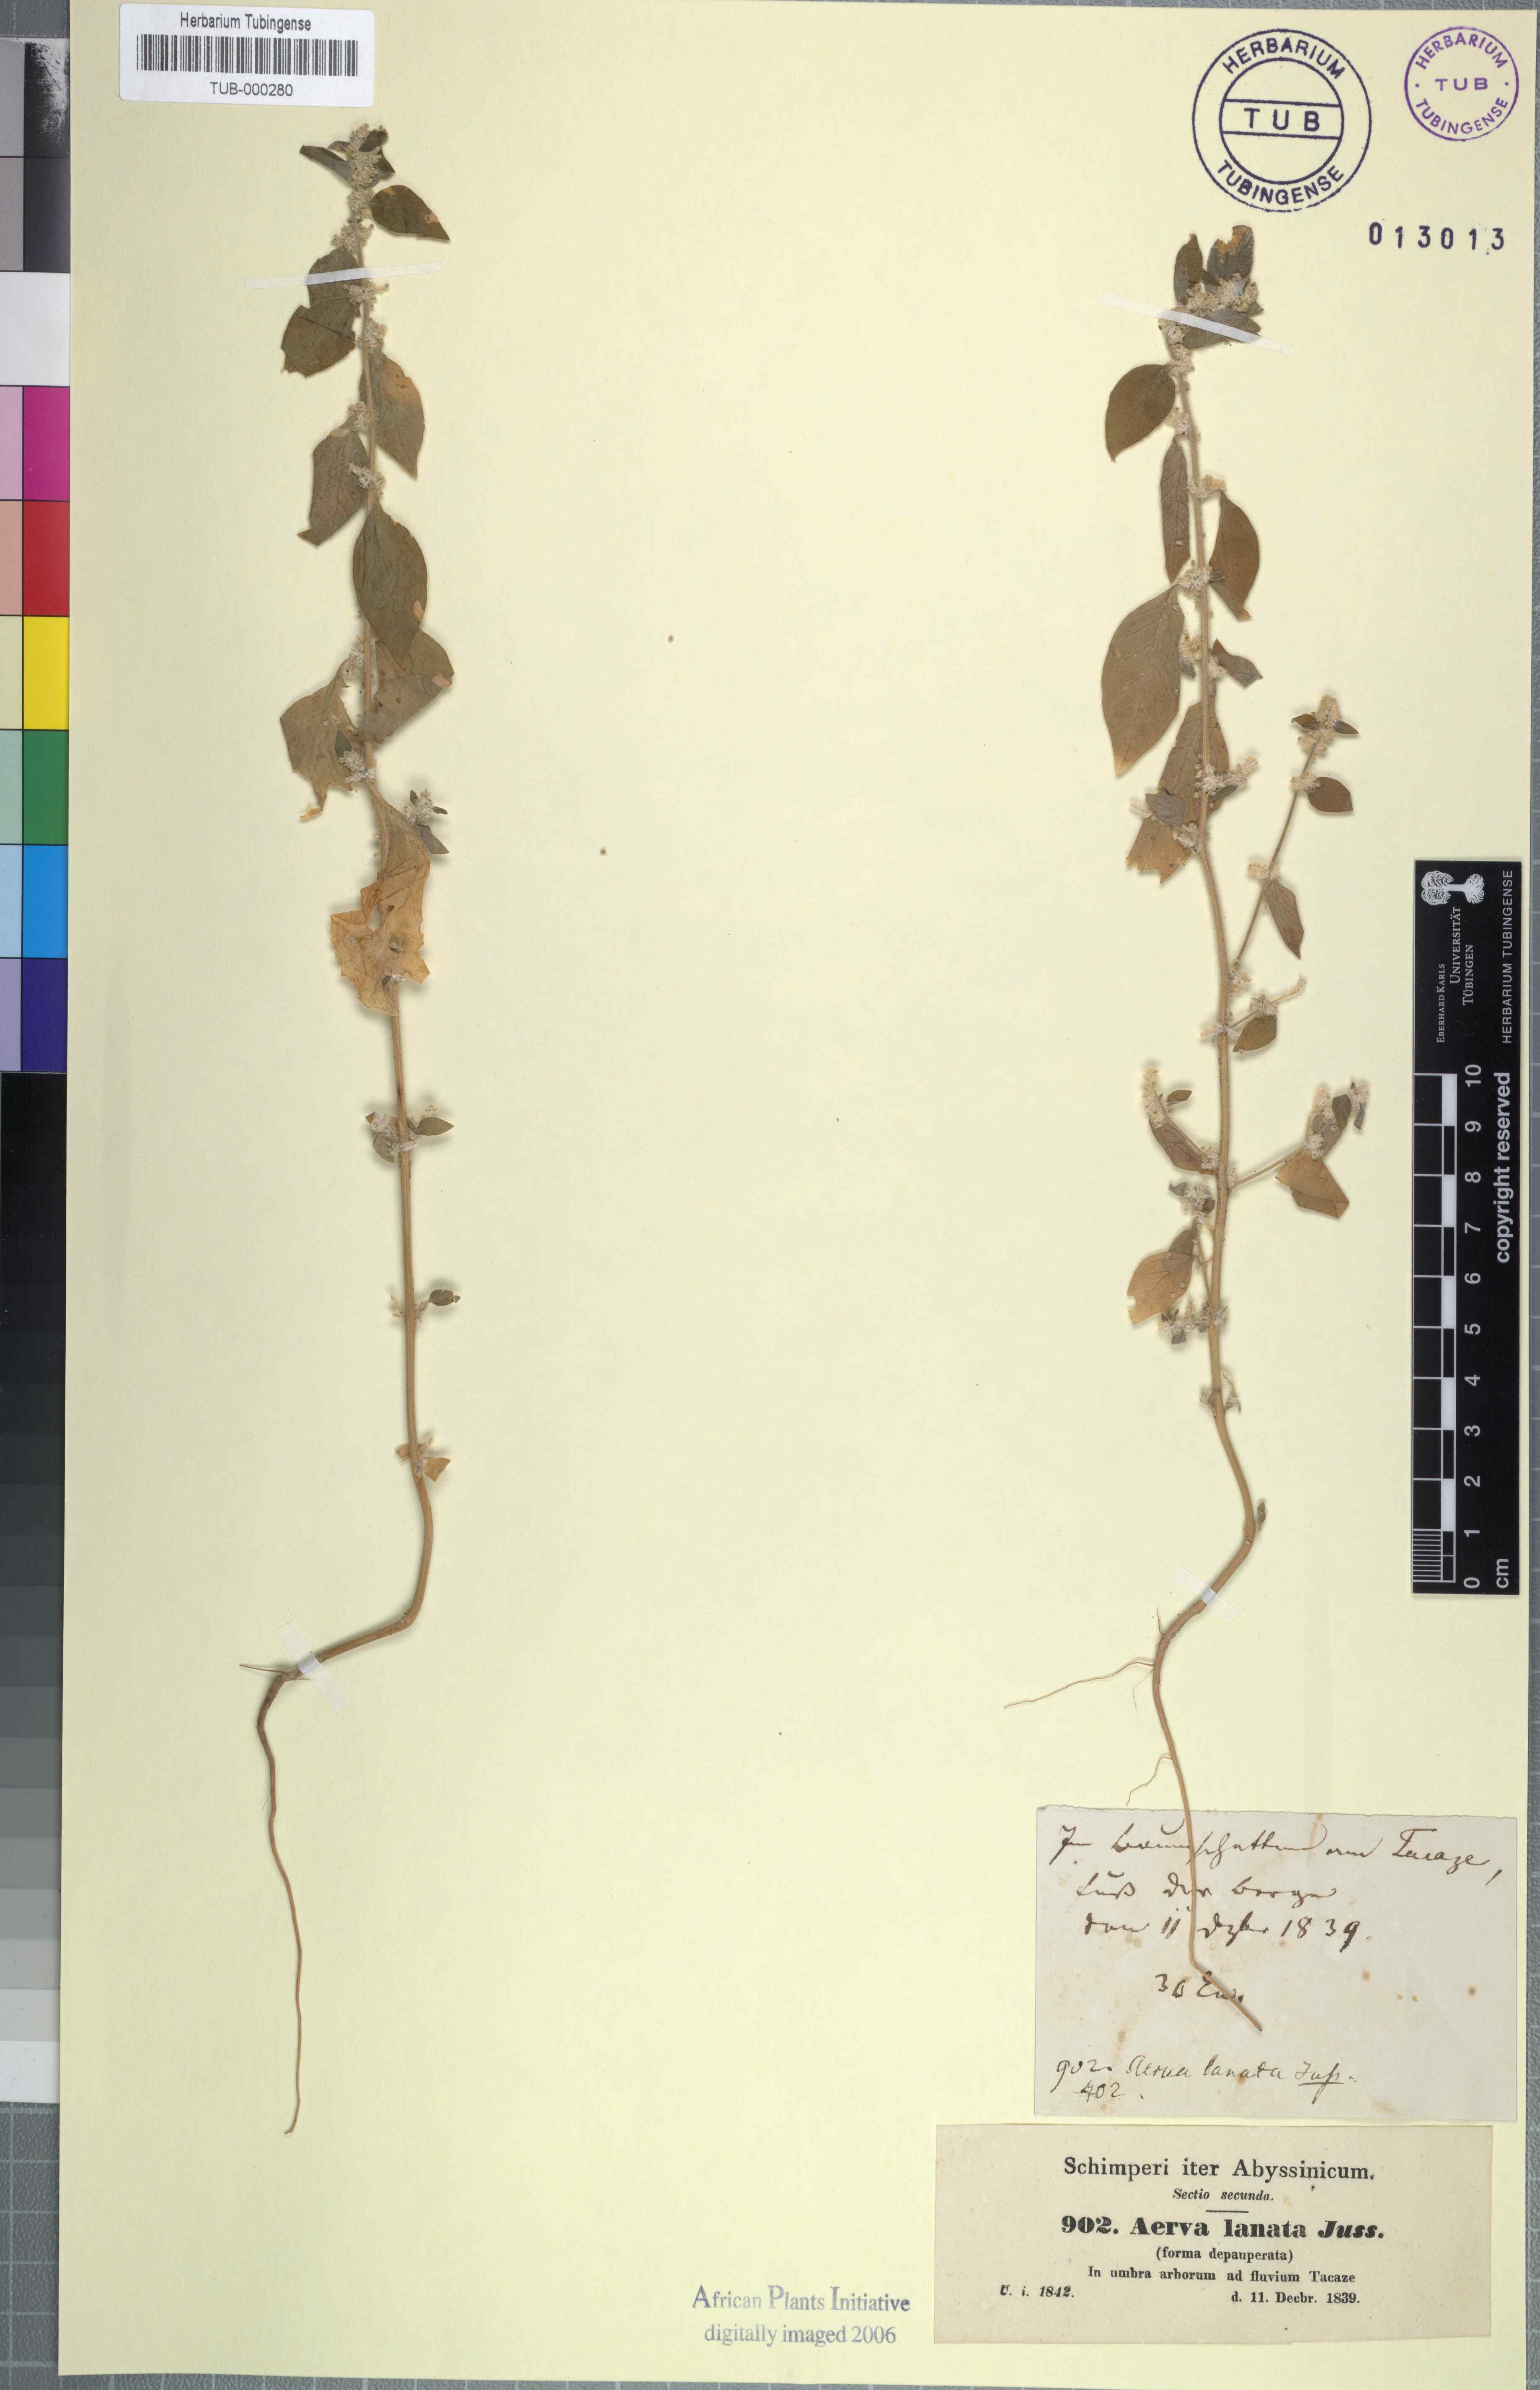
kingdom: Plantae
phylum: Tracheophyta
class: Magnoliopsida
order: Caryophyllales
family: Amaranthaceae
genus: Ouret
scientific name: Ouret lanata
